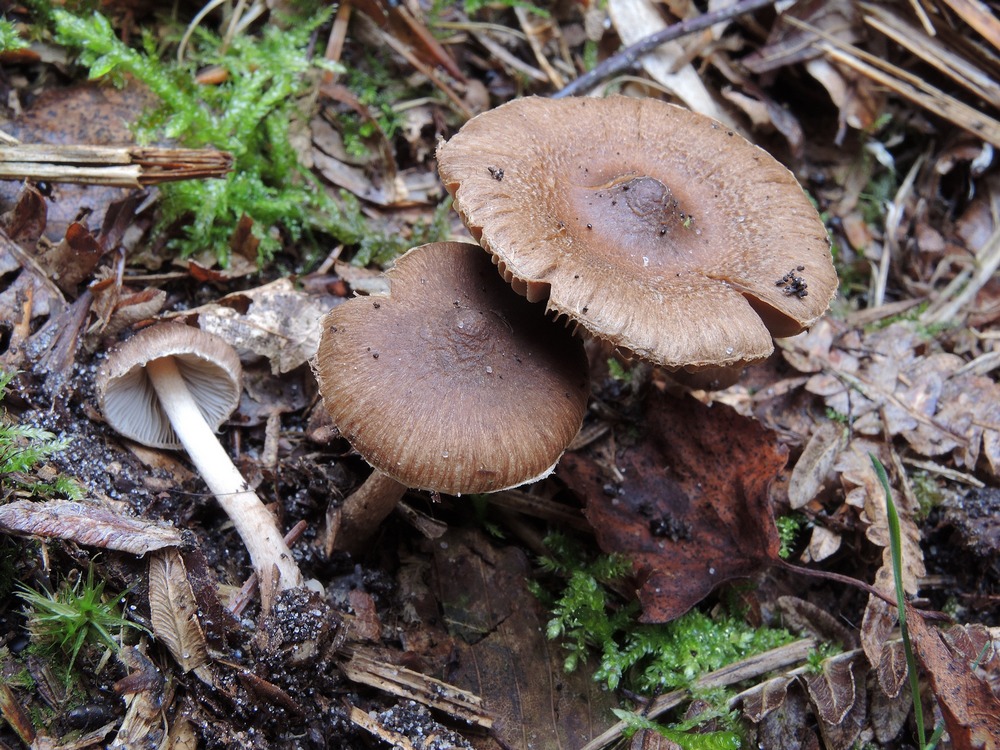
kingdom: Fungi
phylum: Basidiomycota
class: Agaricomycetes
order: Agaricales
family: Inocybaceae
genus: Inocybe
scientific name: Inocybe napipes
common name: roeknoldet trævlhat
